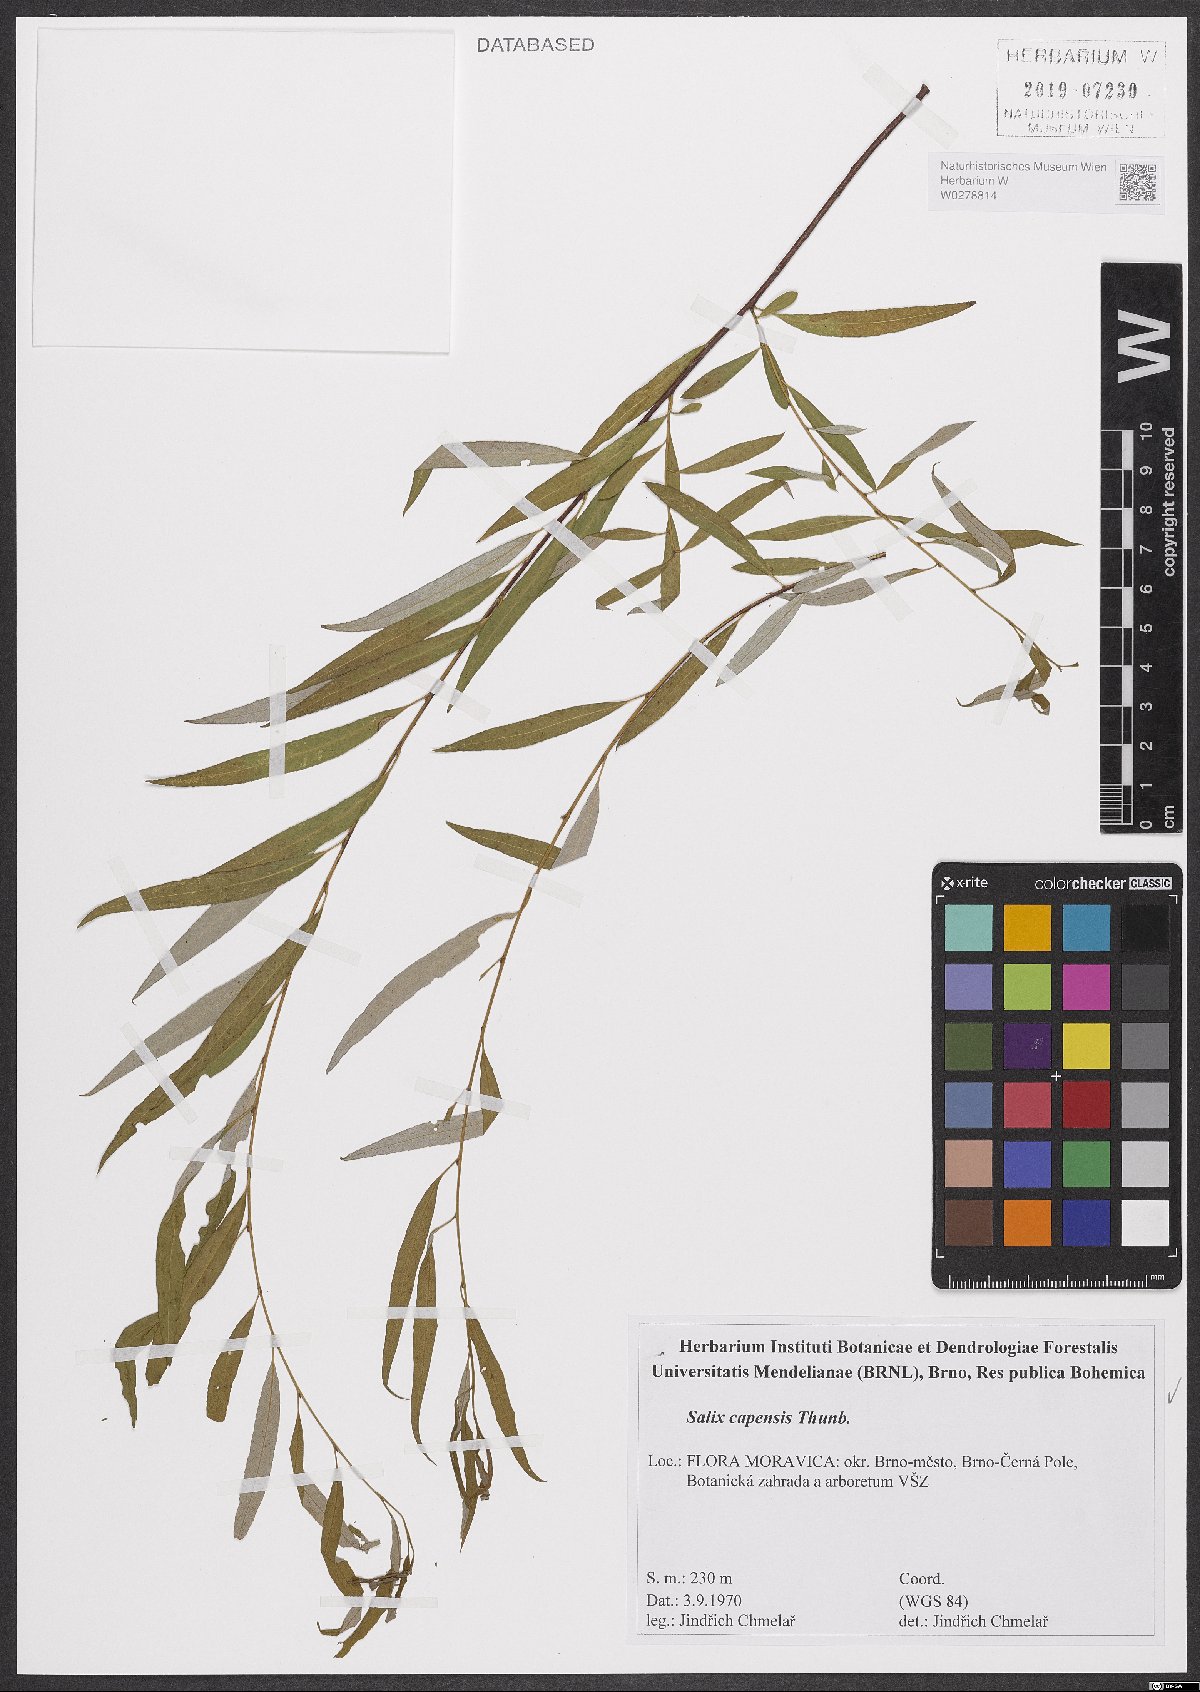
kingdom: Plantae
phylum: Tracheophyta
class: Magnoliopsida
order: Malpighiales
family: Salicaceae
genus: Salix
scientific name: Salix mucronata
